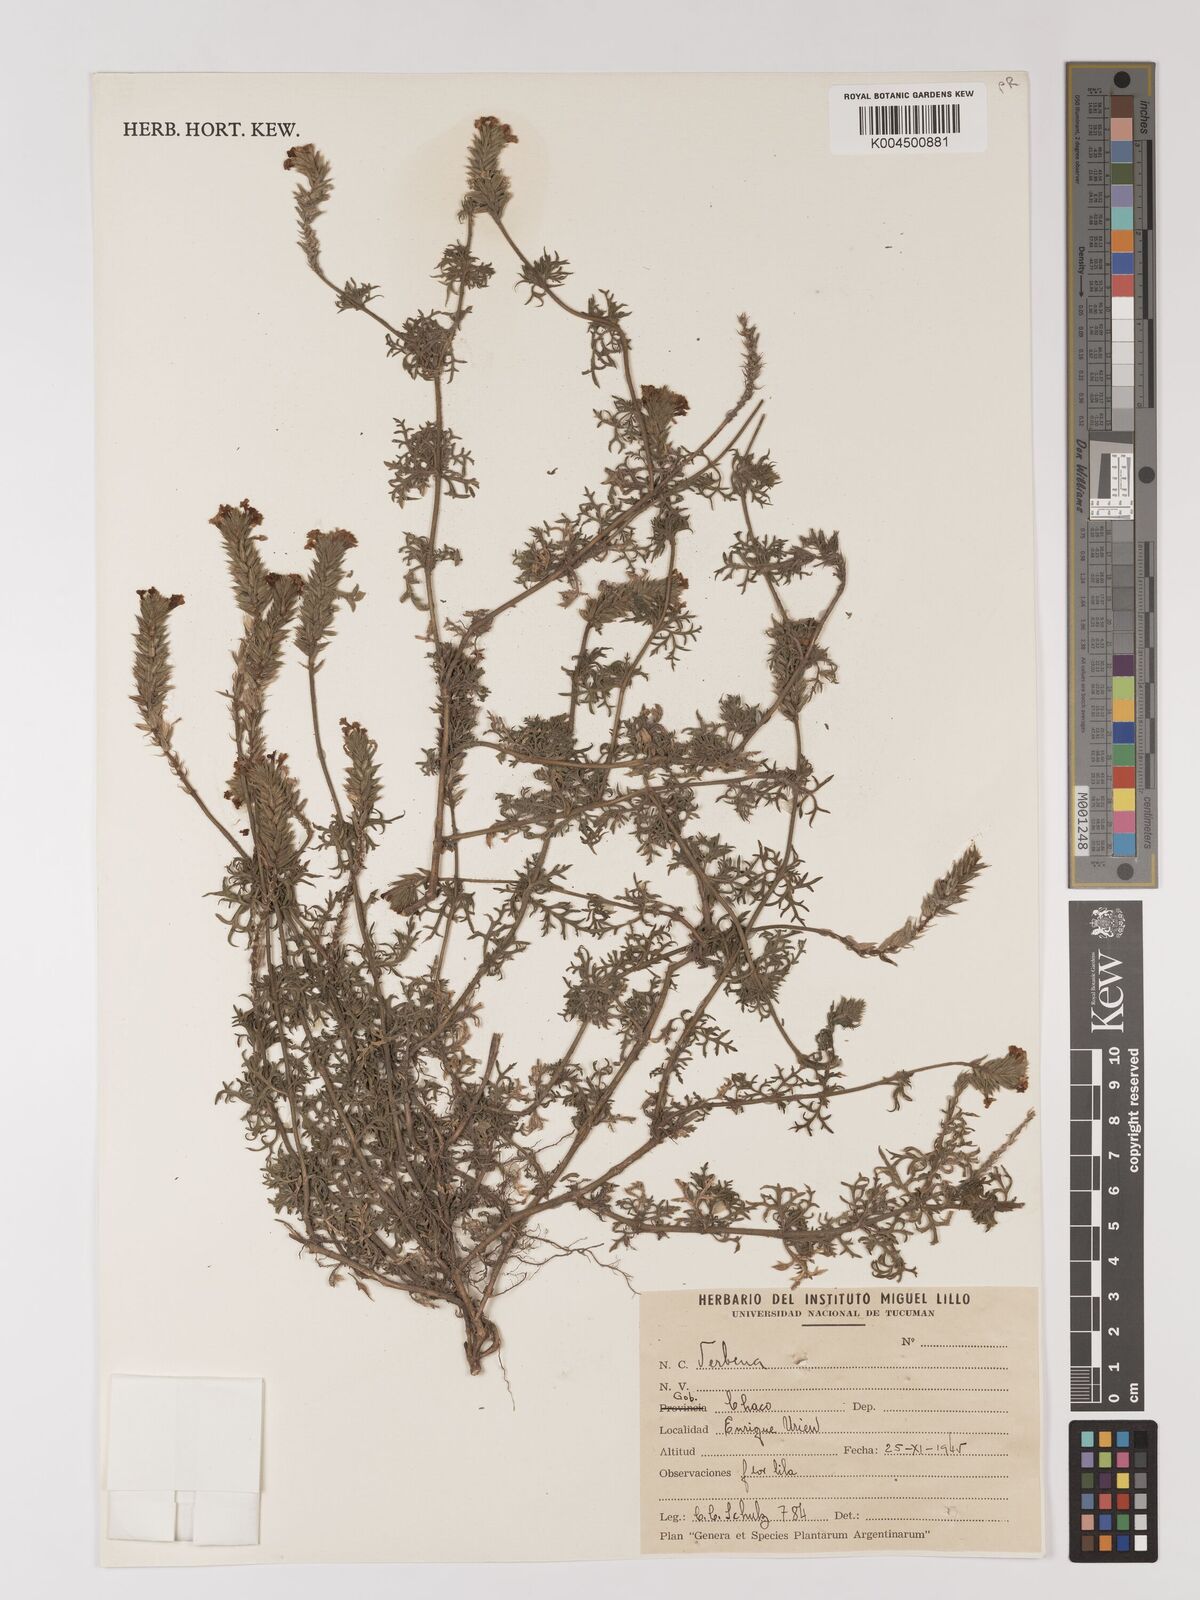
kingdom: Plantae
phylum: Tracheophyta
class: Magnoliopsida
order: Lamiales
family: Verbenaceae
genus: Verbena
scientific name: Verbena
